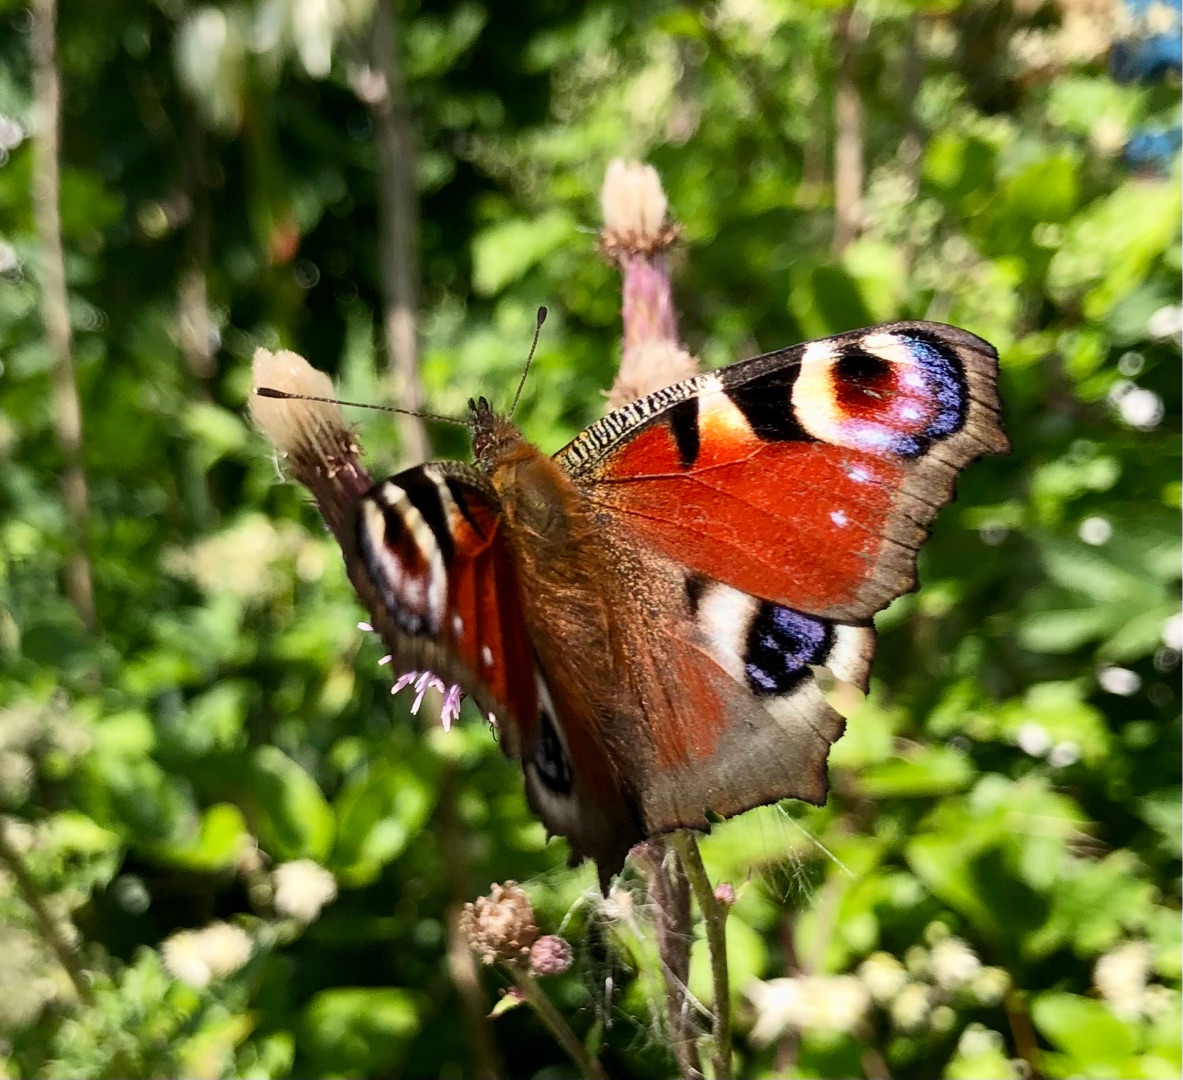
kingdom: Animalia
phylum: Arthropoda
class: Insecta
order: Lepidoptera
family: Nymphalidae
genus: Aglais
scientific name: Aglais io
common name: Dagpåfugleøje
